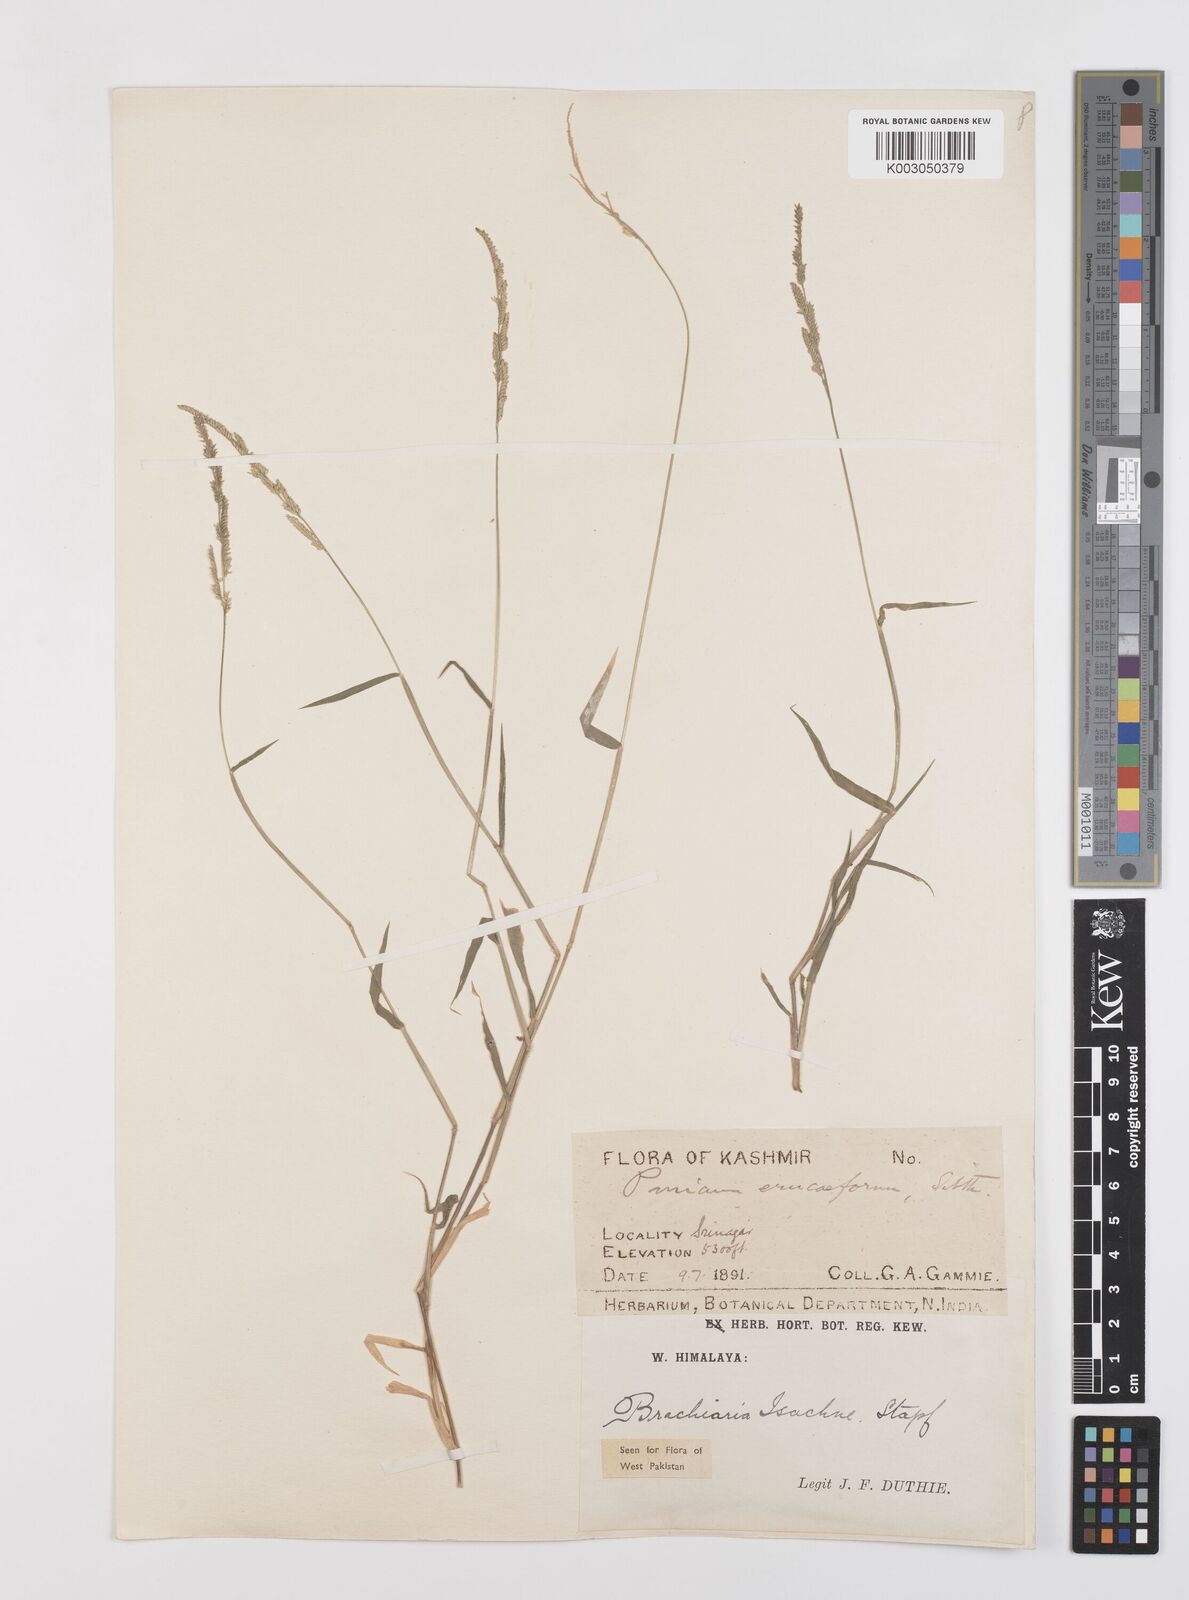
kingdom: Plantae
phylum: Tracheophyta
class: Liliopsida
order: Poales
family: Poaceae
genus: Moorochloa
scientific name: Moorochloa eruciformis
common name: Sweet signalgrass
